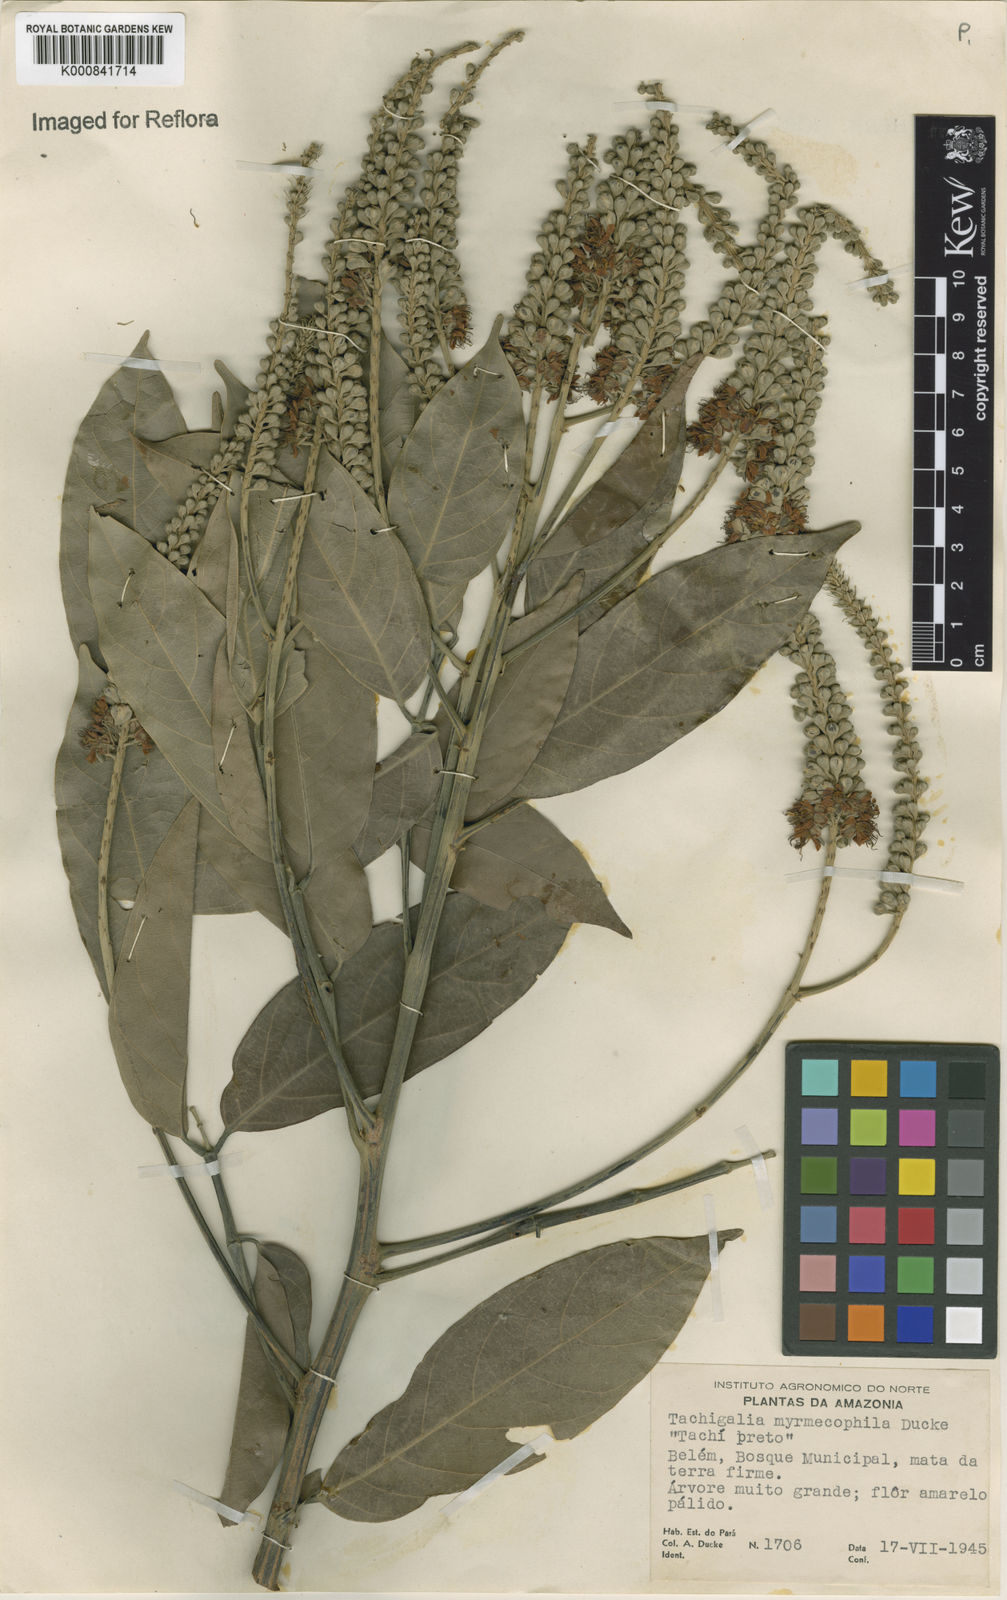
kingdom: Plantae
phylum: Tracheophyta
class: Magnoliopsida
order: Fabales
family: Fabaceae
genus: Tachigali
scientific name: Tachigali glauca
